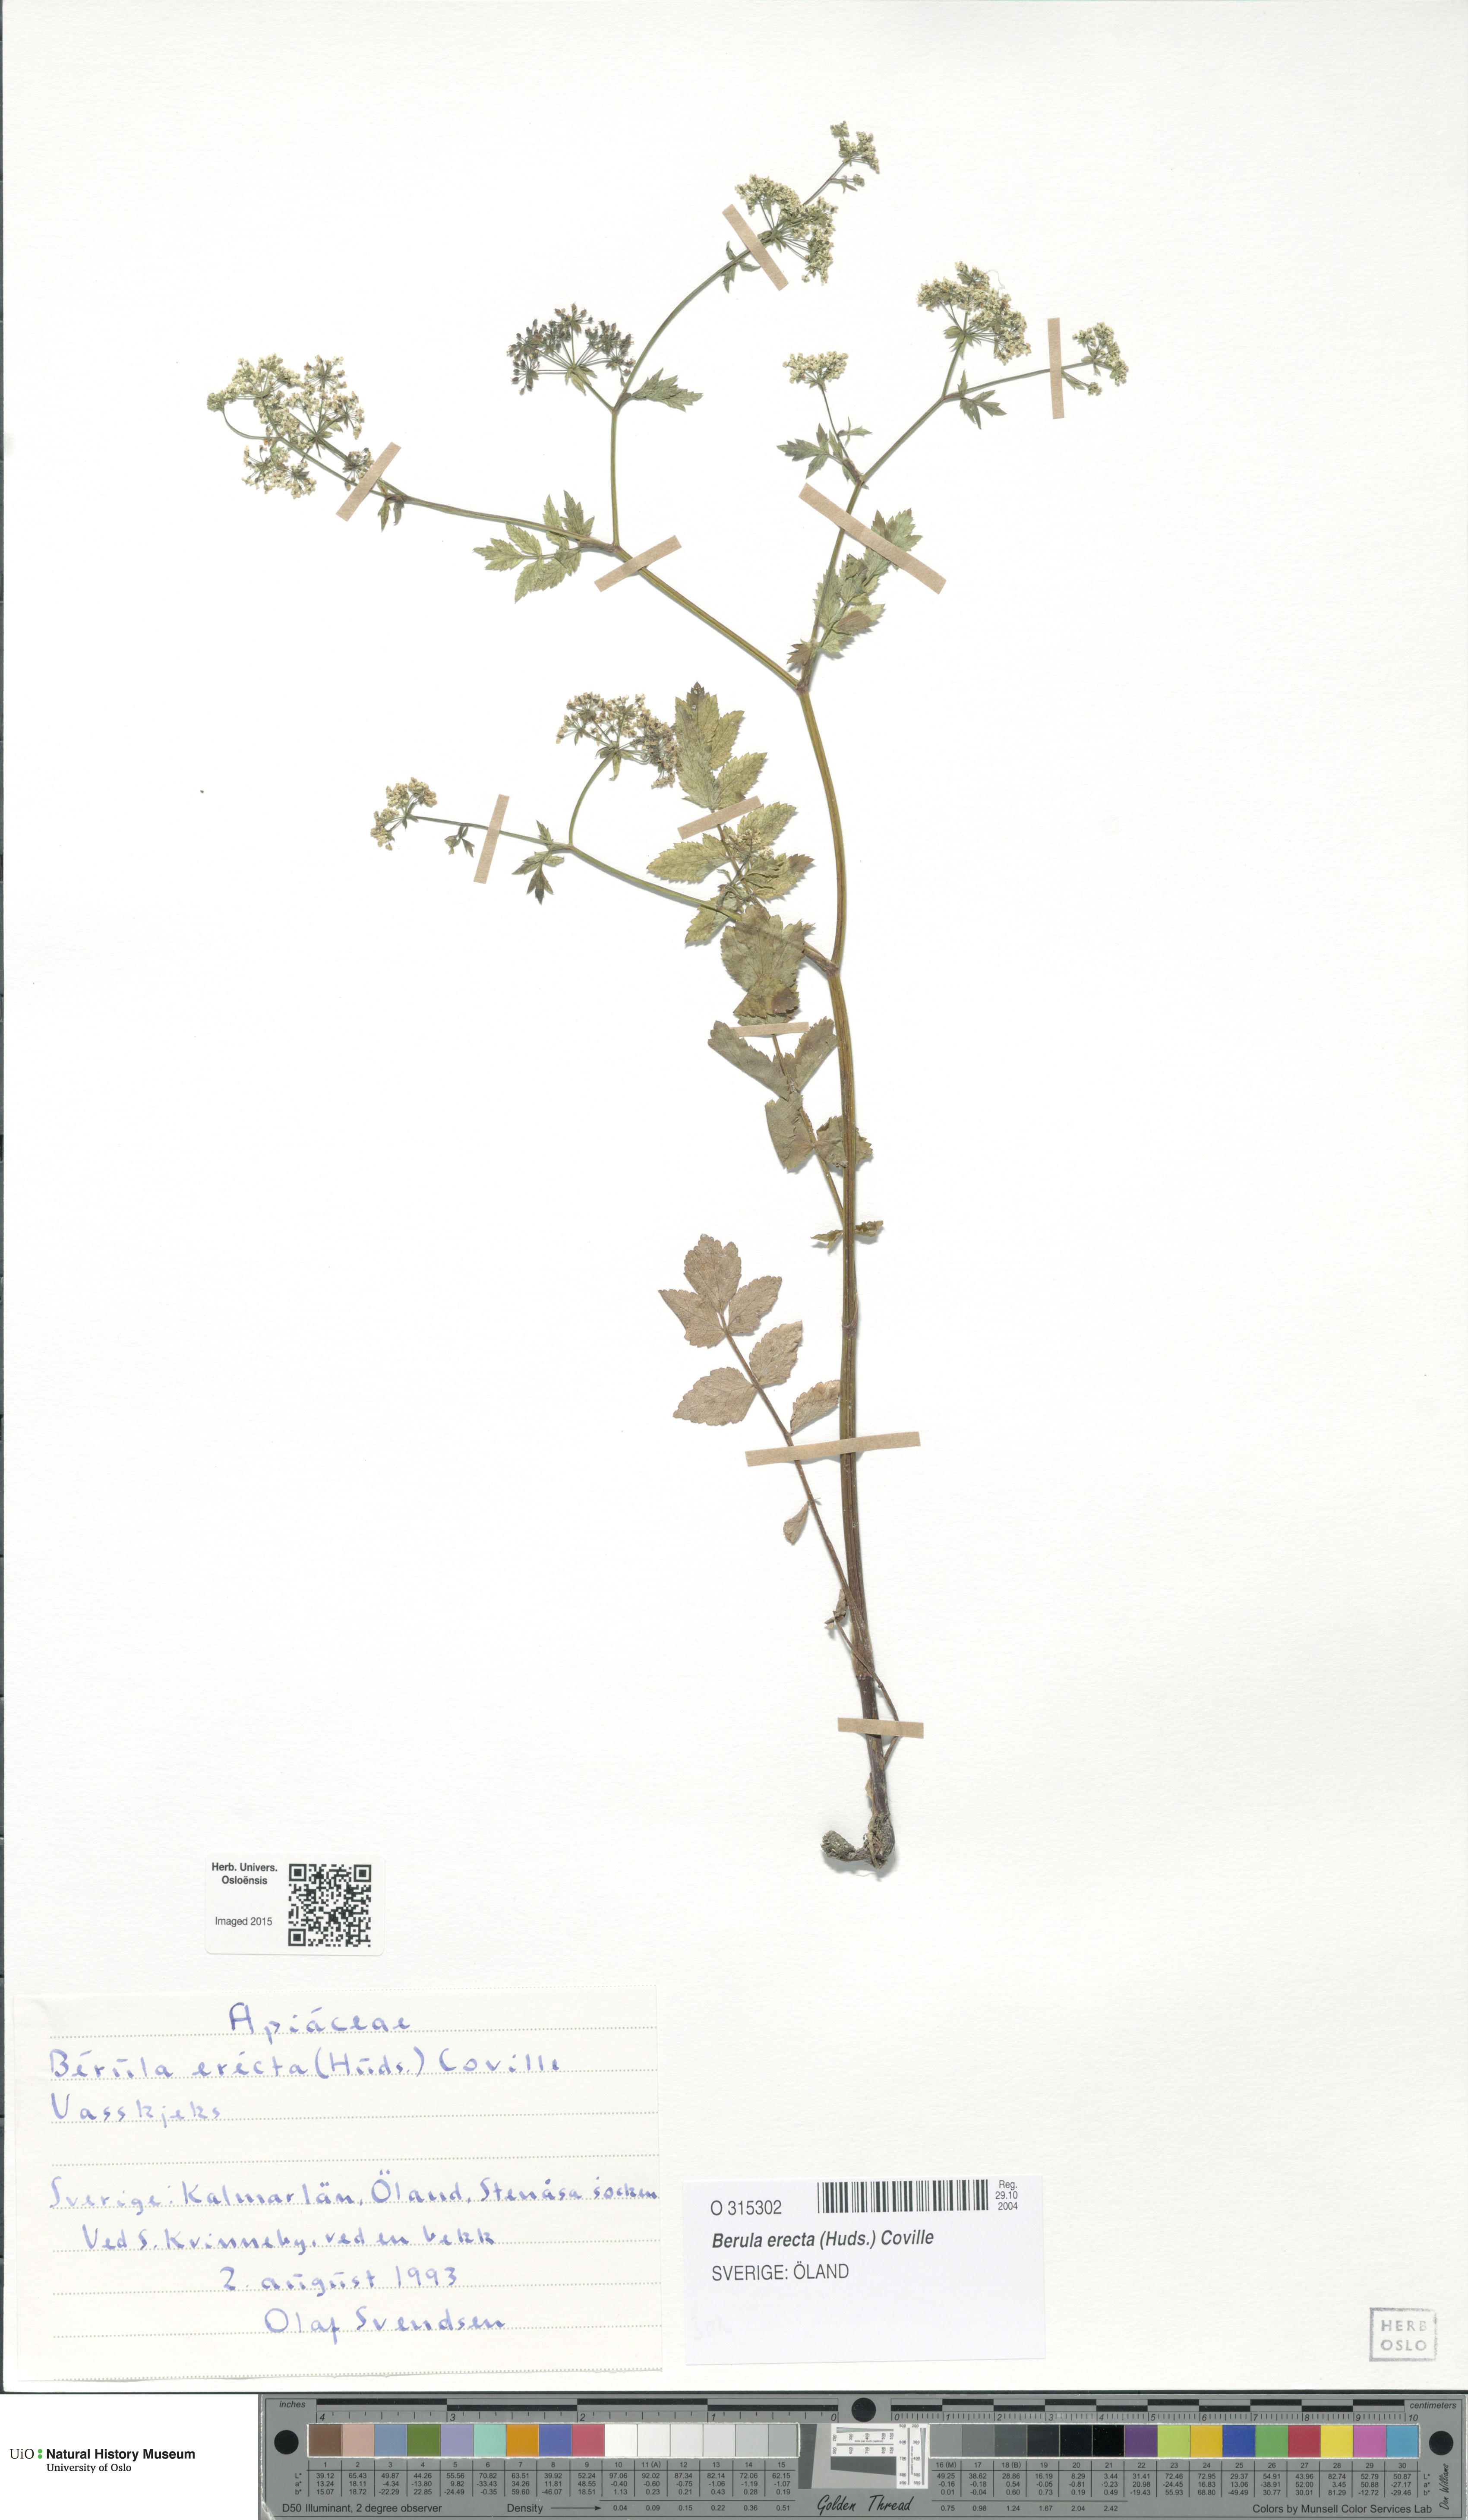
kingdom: Plantae
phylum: Tracheophyta
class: Magnoliopsida
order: Apiales
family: Apiaceae
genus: Berula
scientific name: Berula erecta
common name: Lesser water-parsnip
